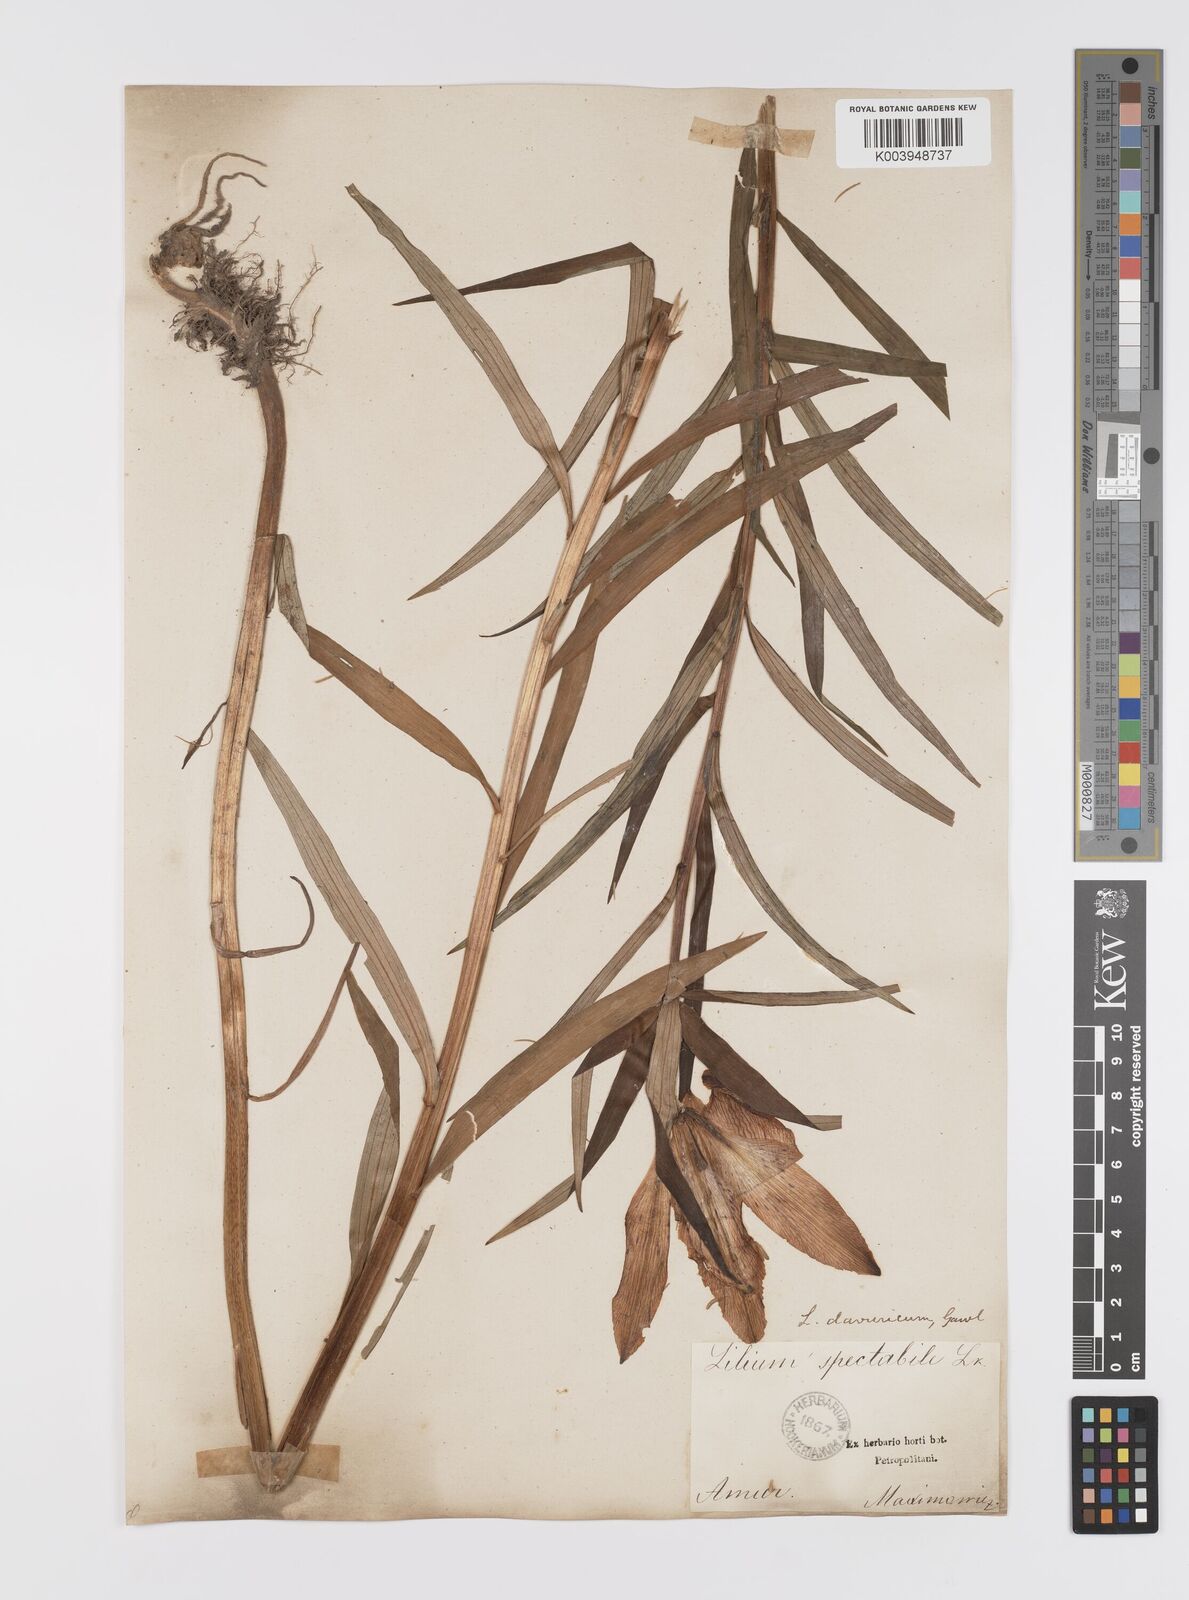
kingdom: Plantae
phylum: Tracheophyta
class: Liliopsida
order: Liliales
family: Liliaceae
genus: Lilium
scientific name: Lilium pensylvanicum
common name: Candlestick lily
